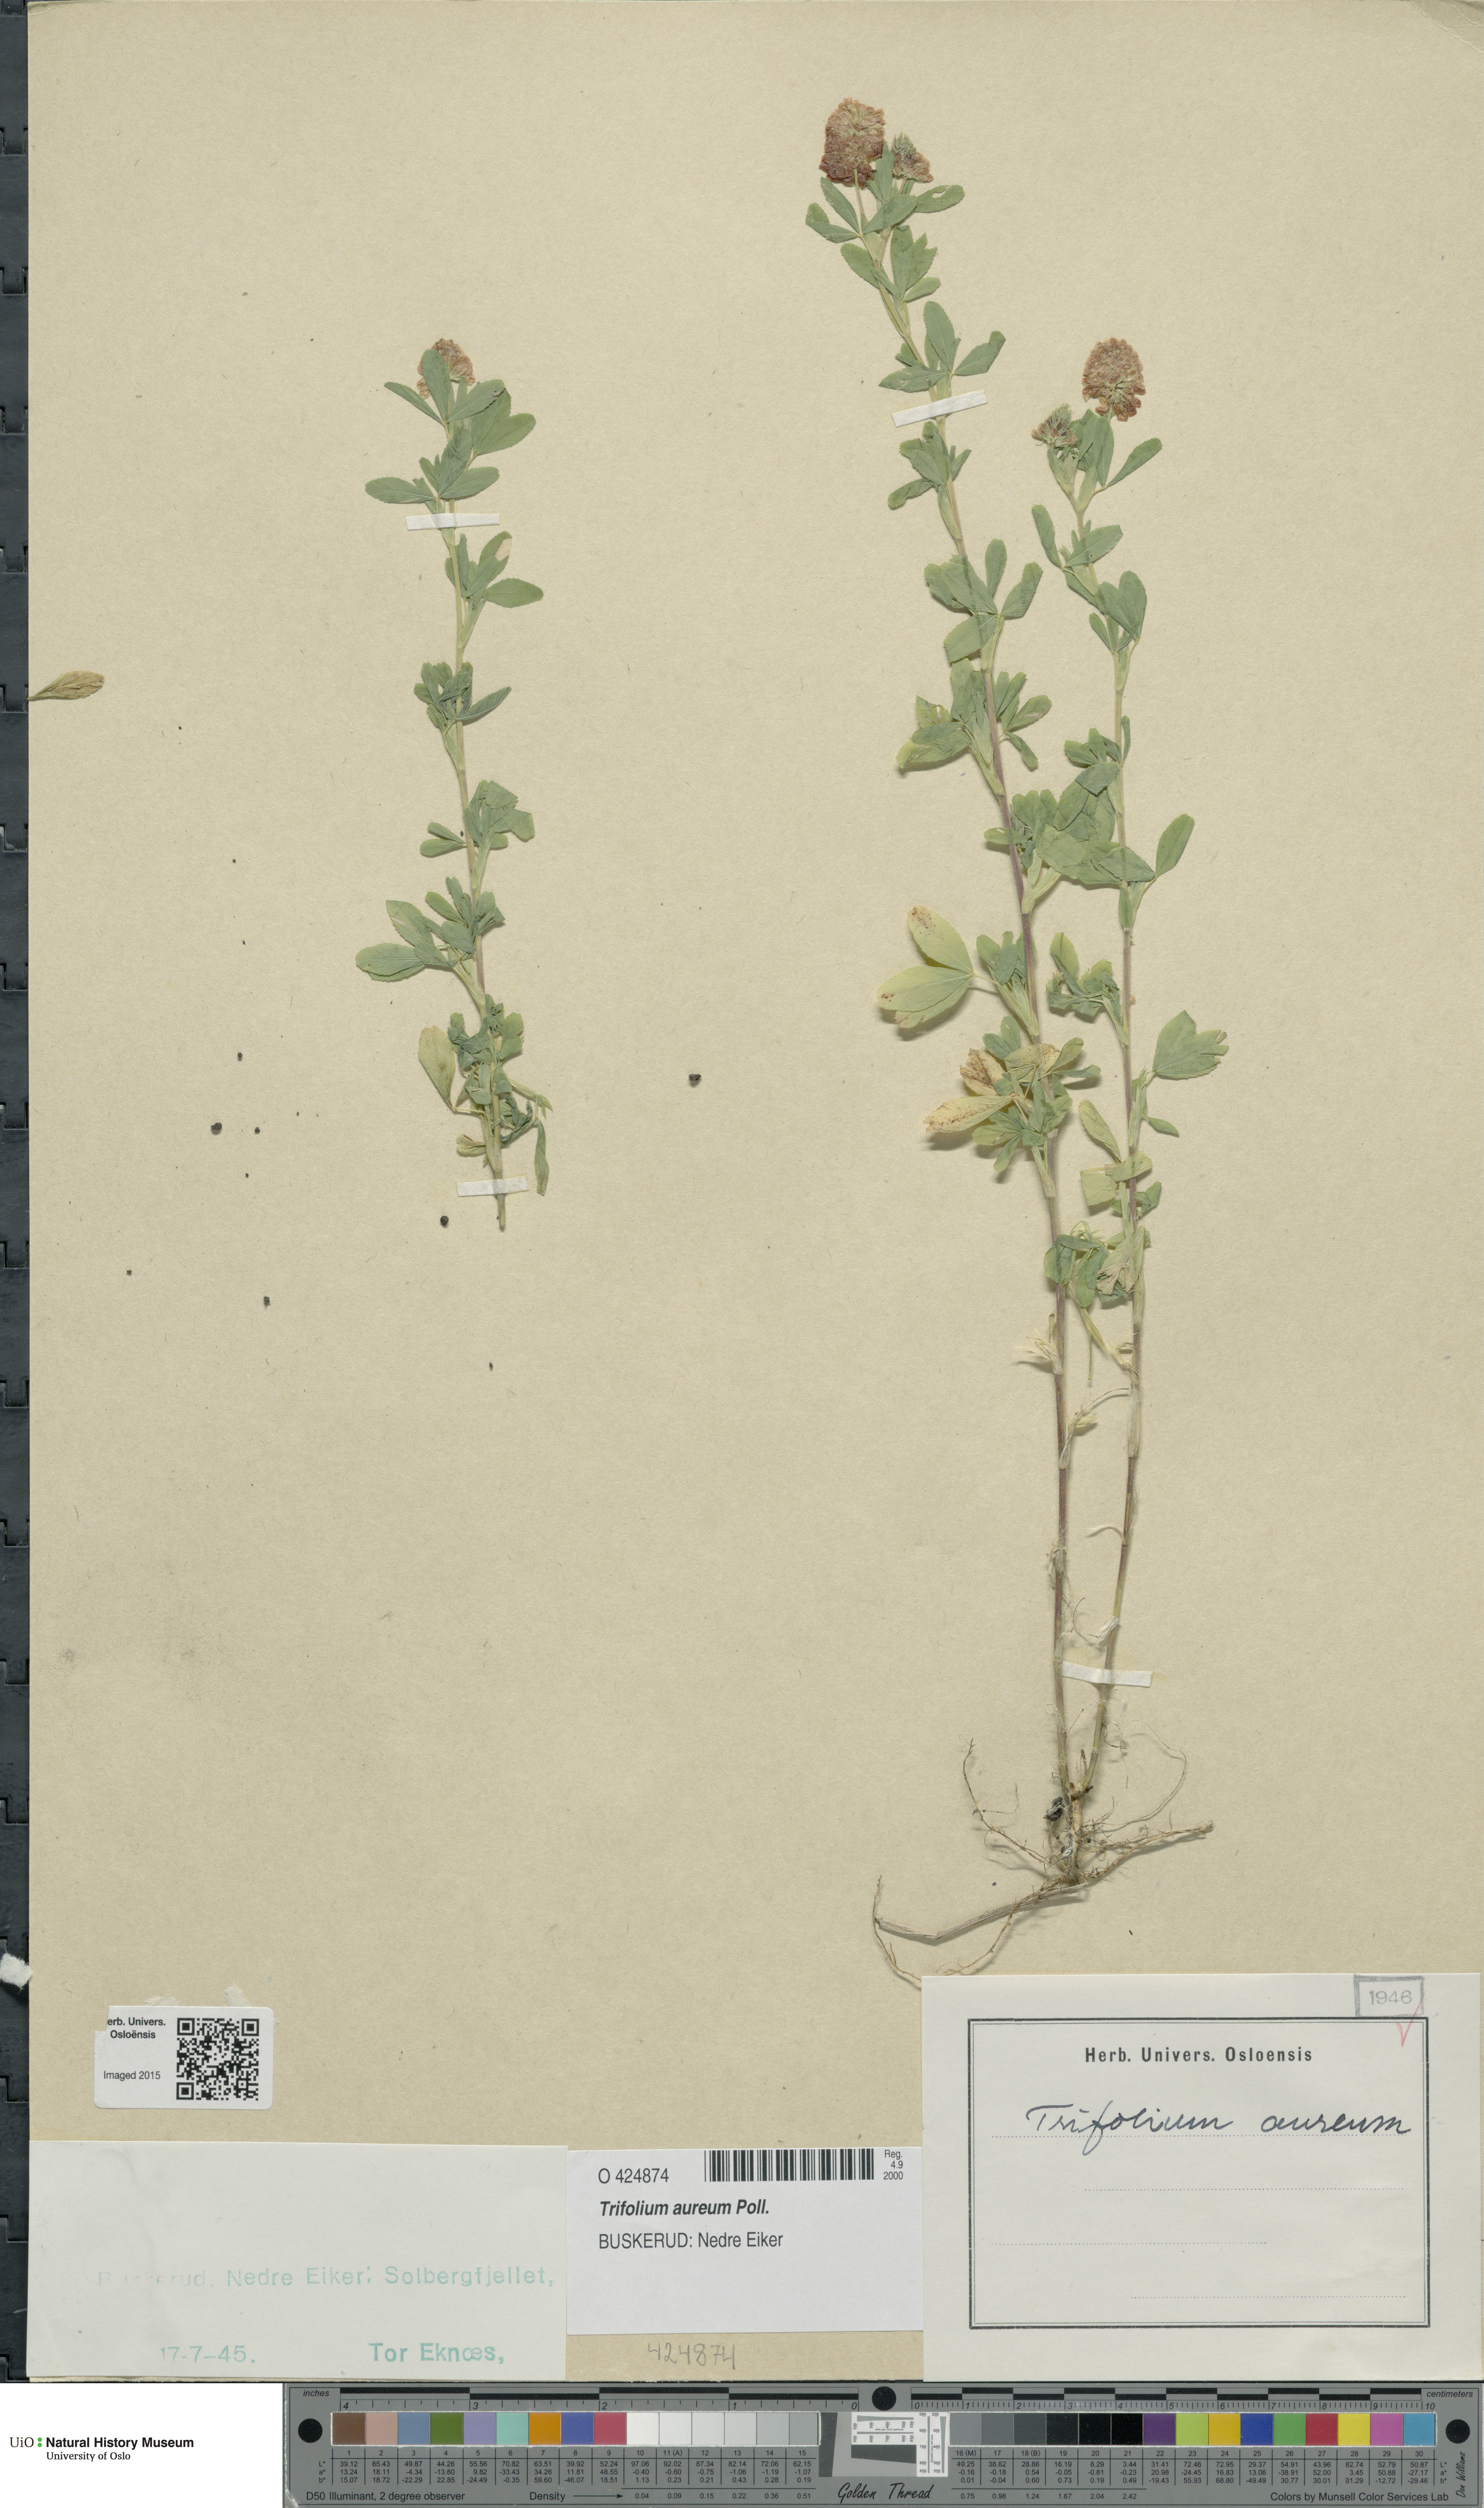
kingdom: Plantae
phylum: Tracheophyta
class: Magnoliopsida
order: Fabales
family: Fabaceae
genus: Trifolium
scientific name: Trifolium aureum
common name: Golden clover
